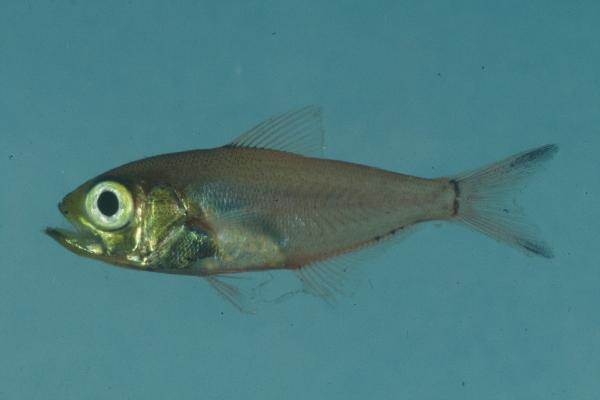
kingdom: Animalia
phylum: Chordata
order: Perciformes
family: Pempheridae
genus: Parapriacanthus
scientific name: Parapriacanthus ransonneti
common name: Pigmy sweeper
